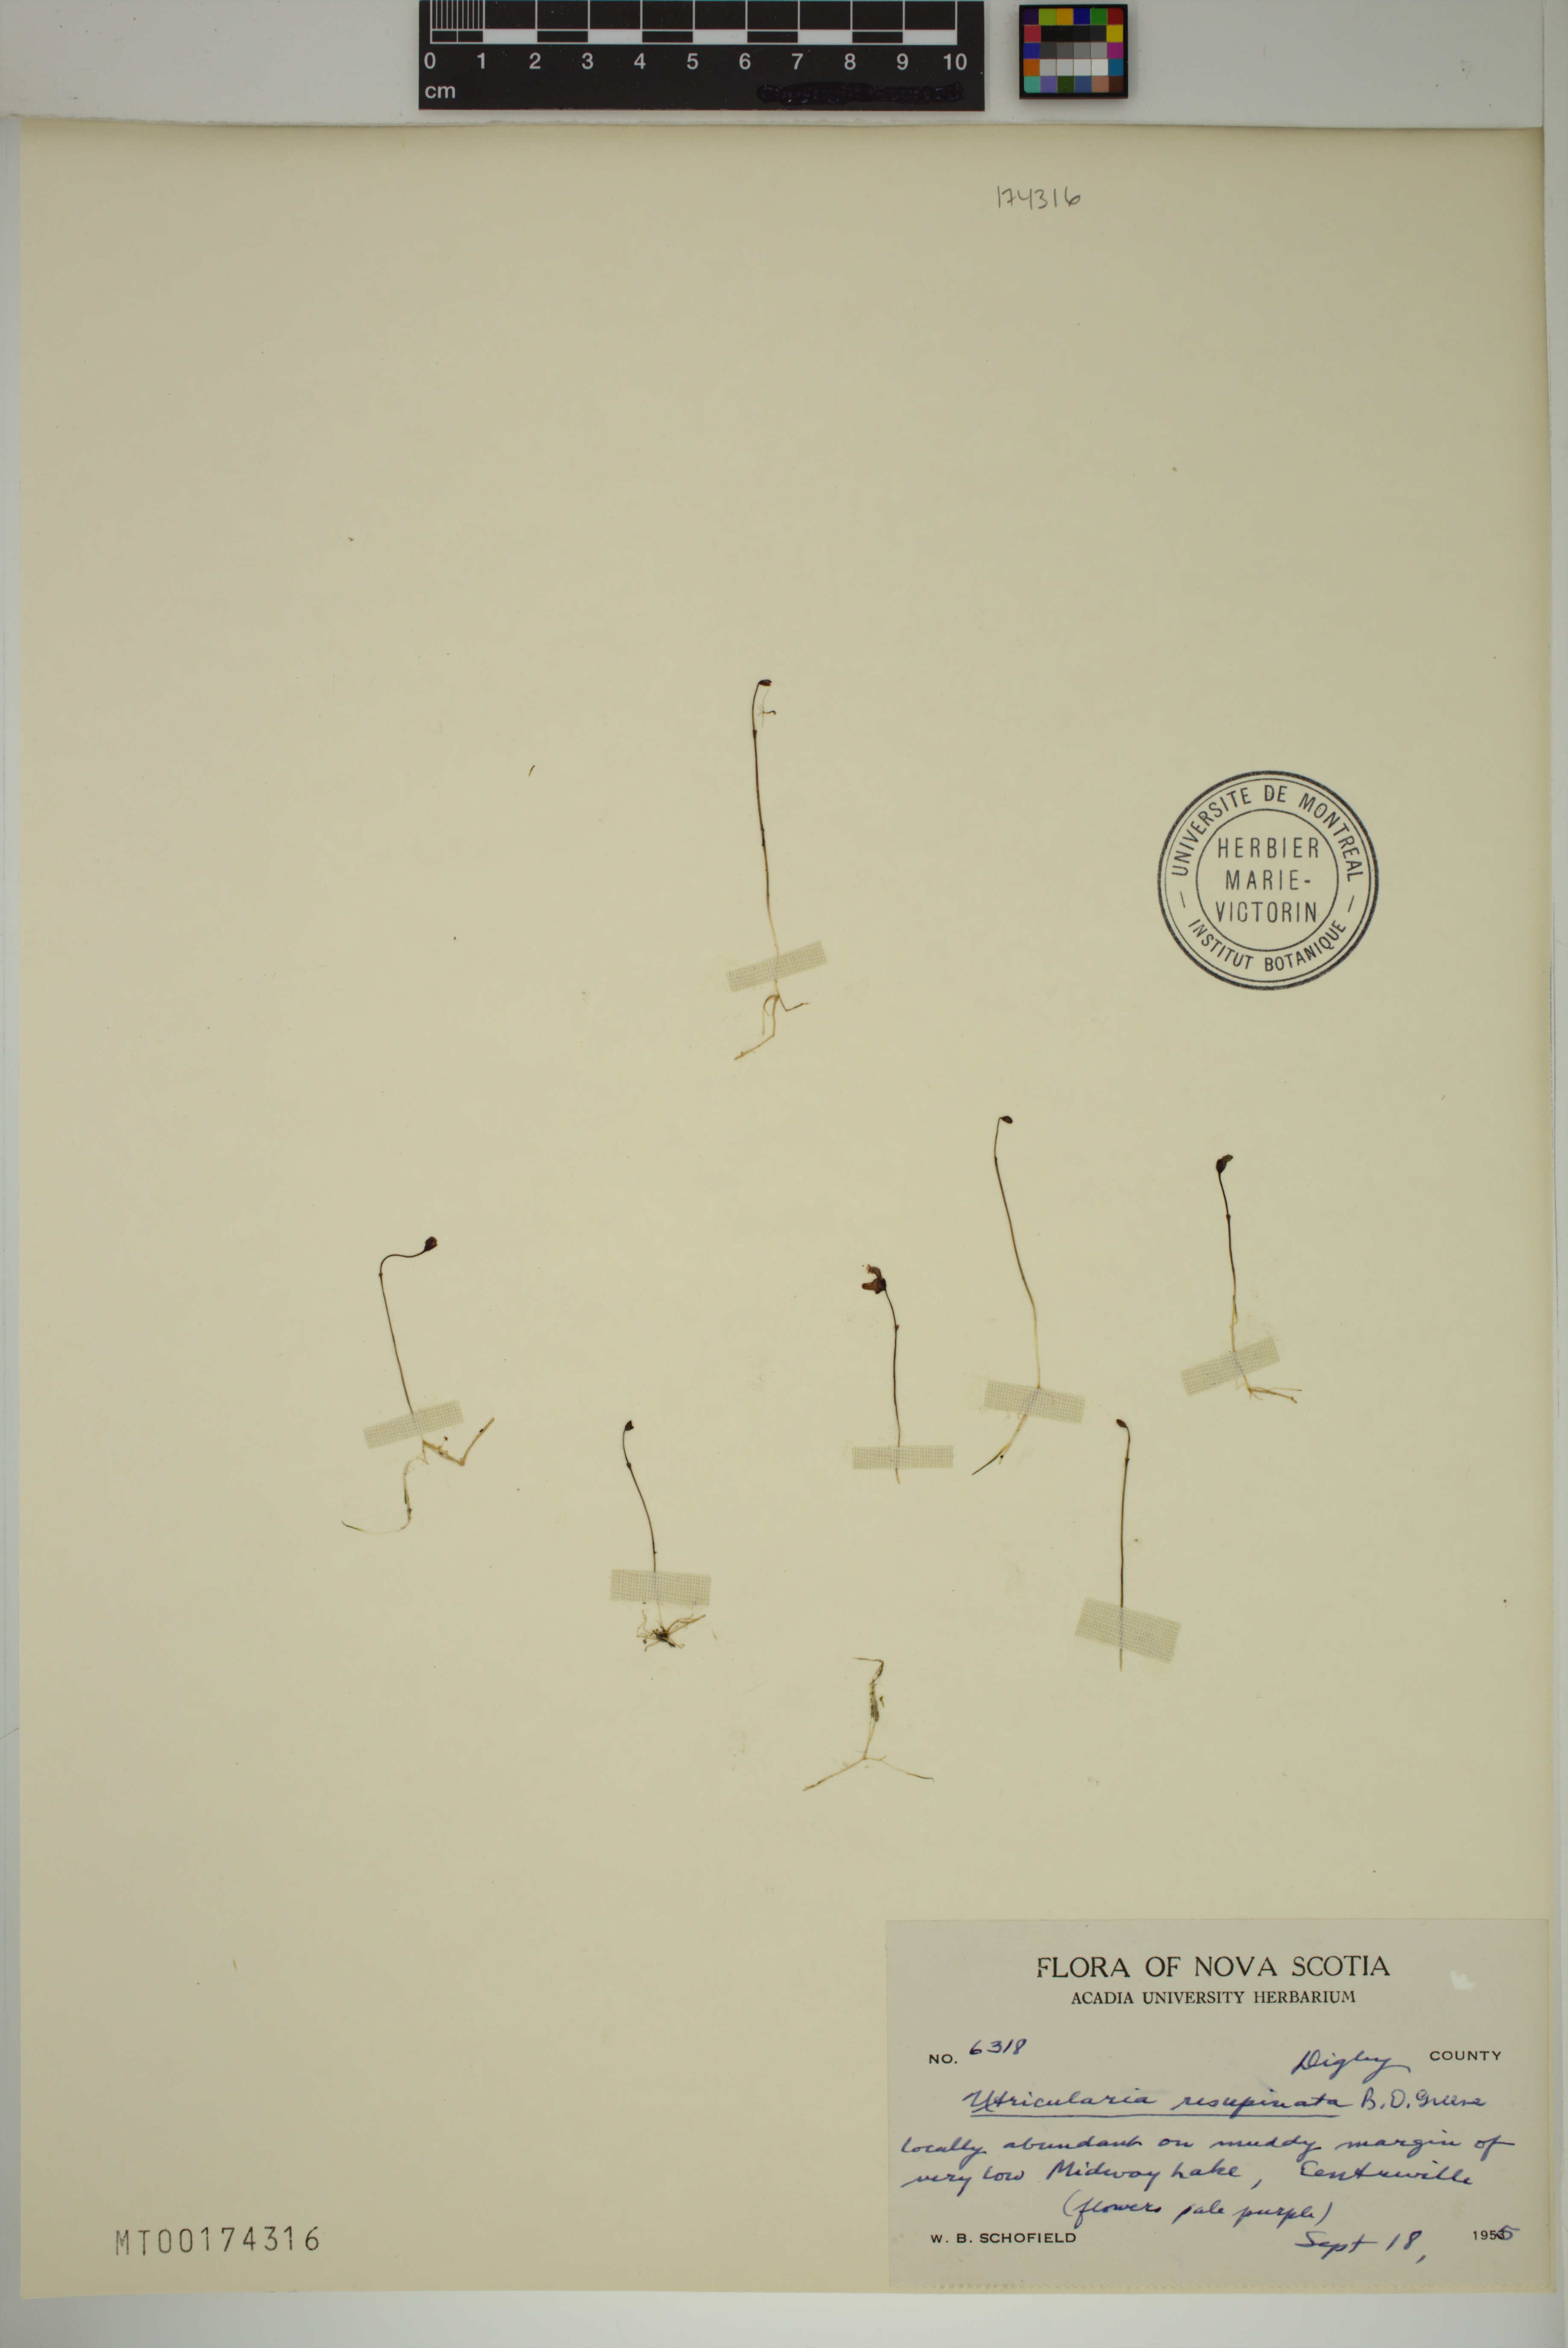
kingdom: Plantae
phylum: Tracheophyta
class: Magnoliopsida
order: Lamiales
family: Lentibulariaceae
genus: Utricularia
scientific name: Utricularia resupinata
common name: Northeastern bladderwort
